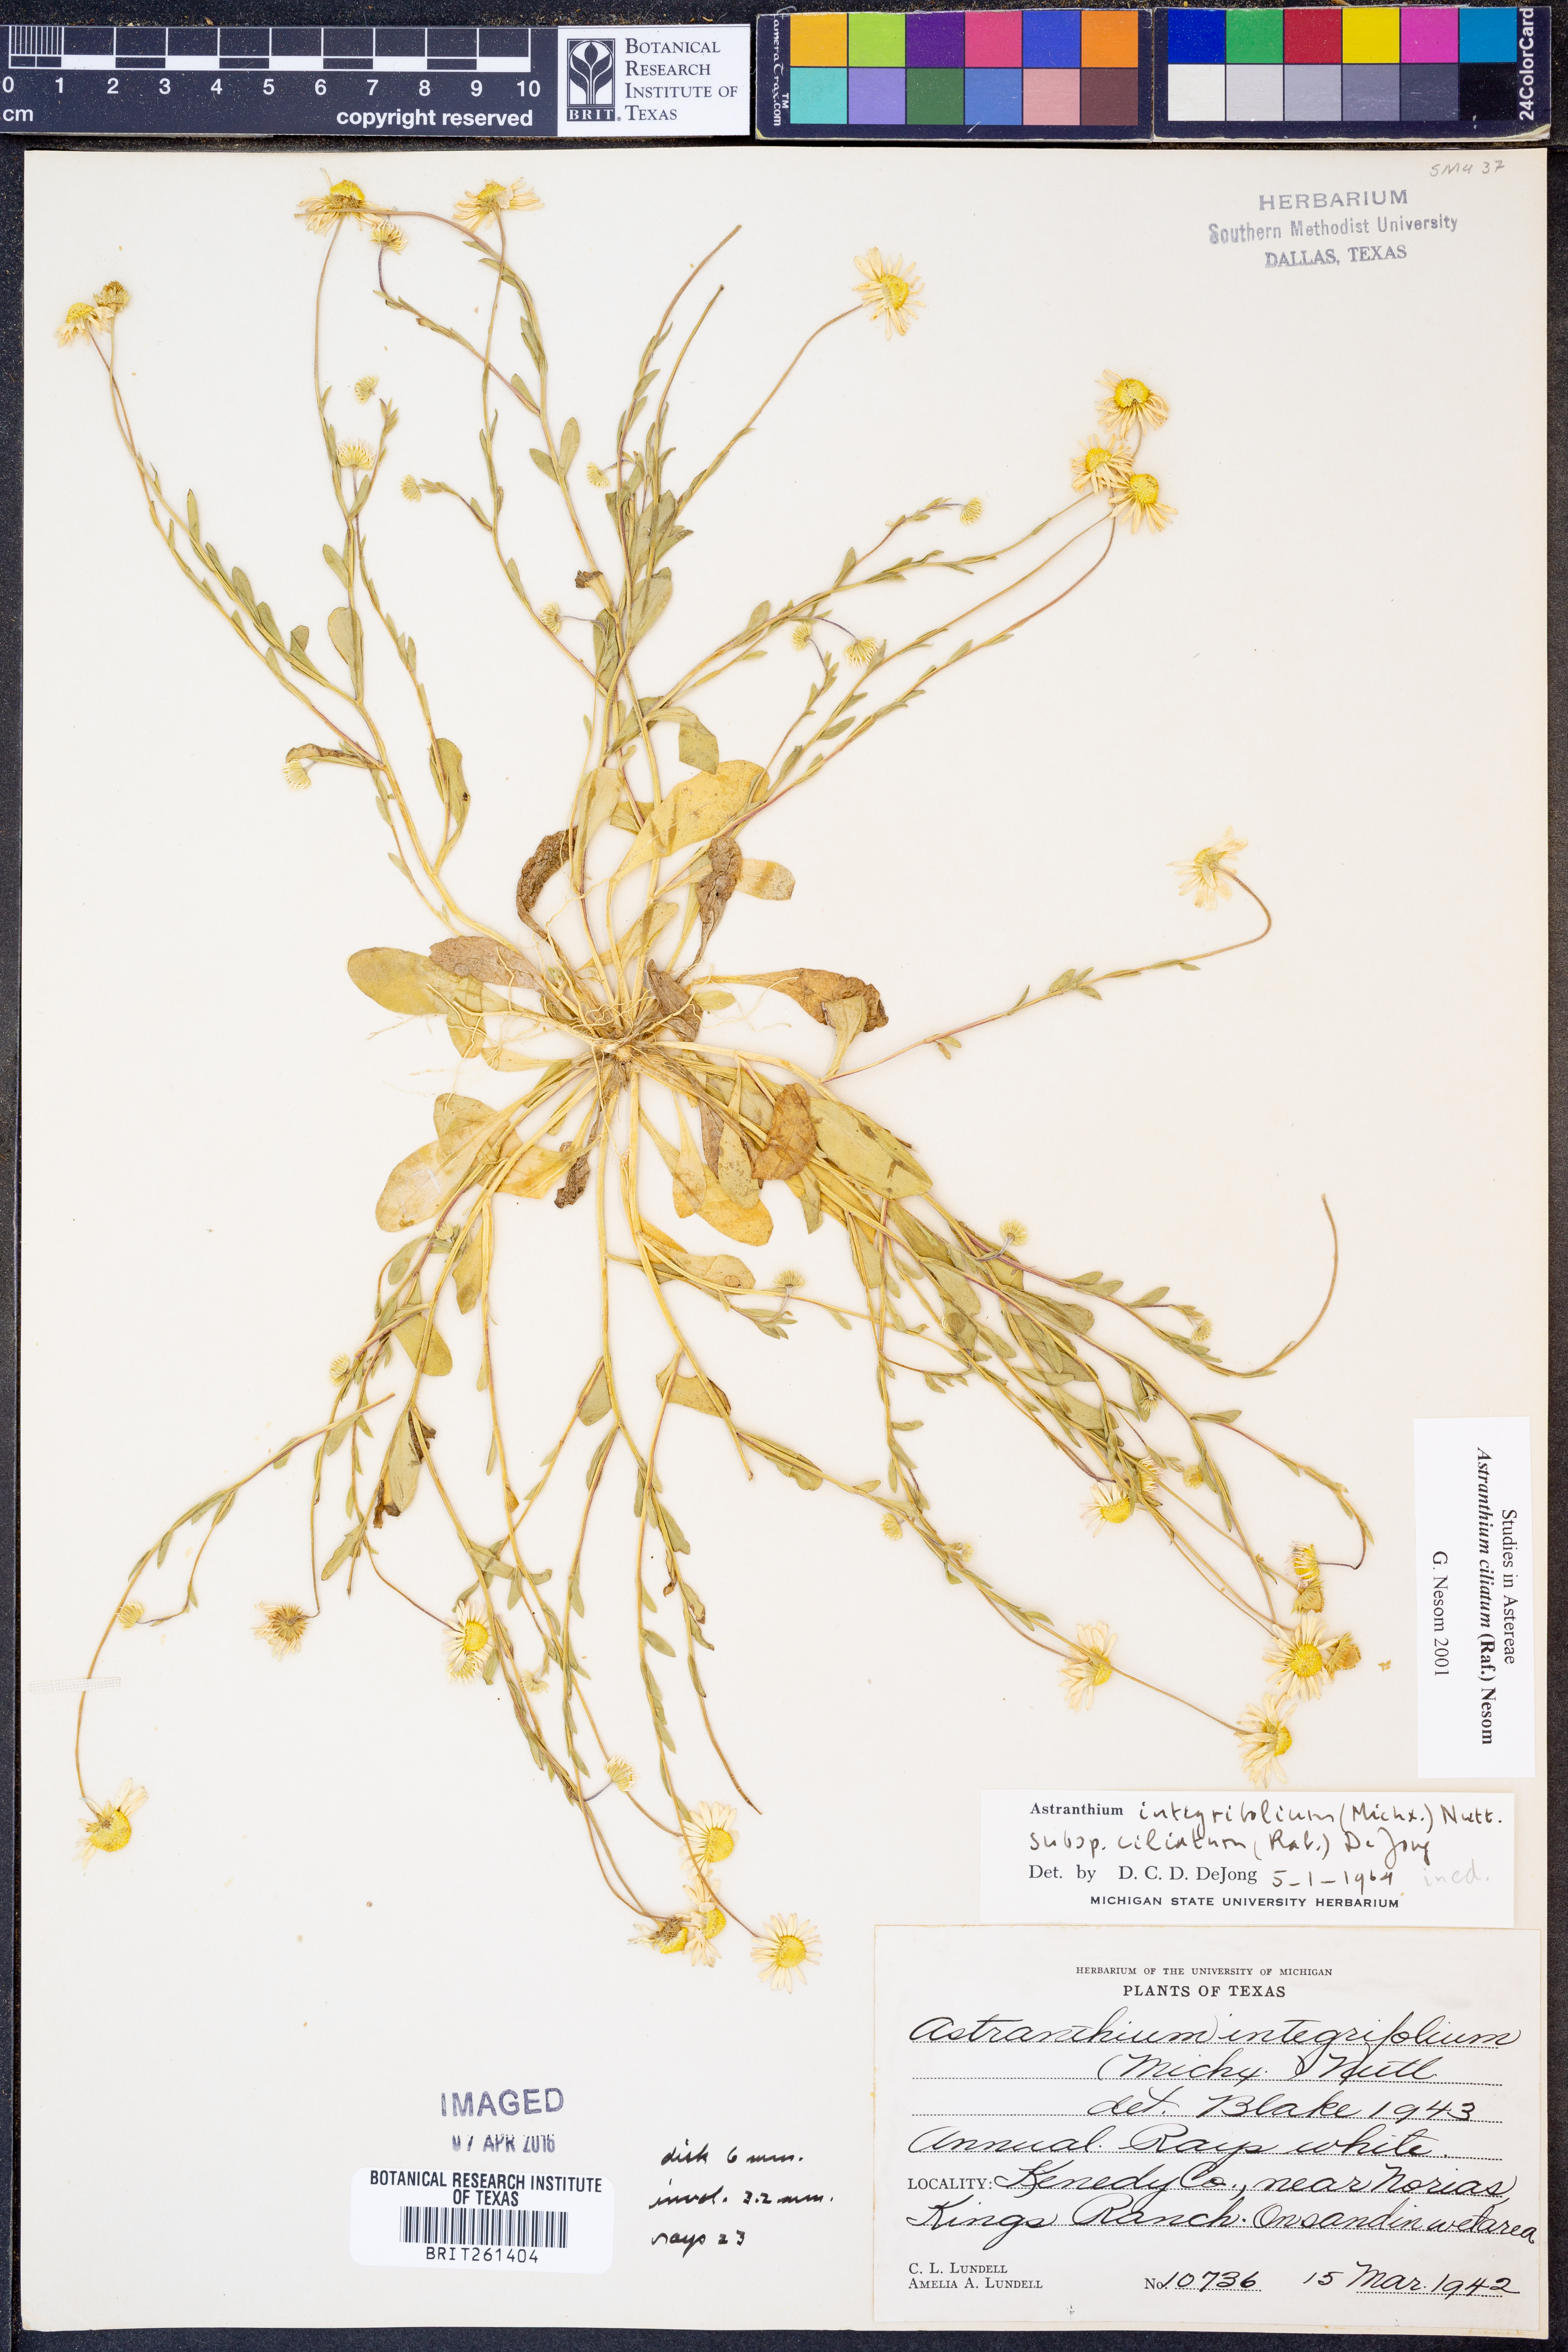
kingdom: Plantae
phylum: Tracheophyta
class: Magnoliopsida
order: Asterales
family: Asteraceae
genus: Astranthium
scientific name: Astranthium ciliatum
